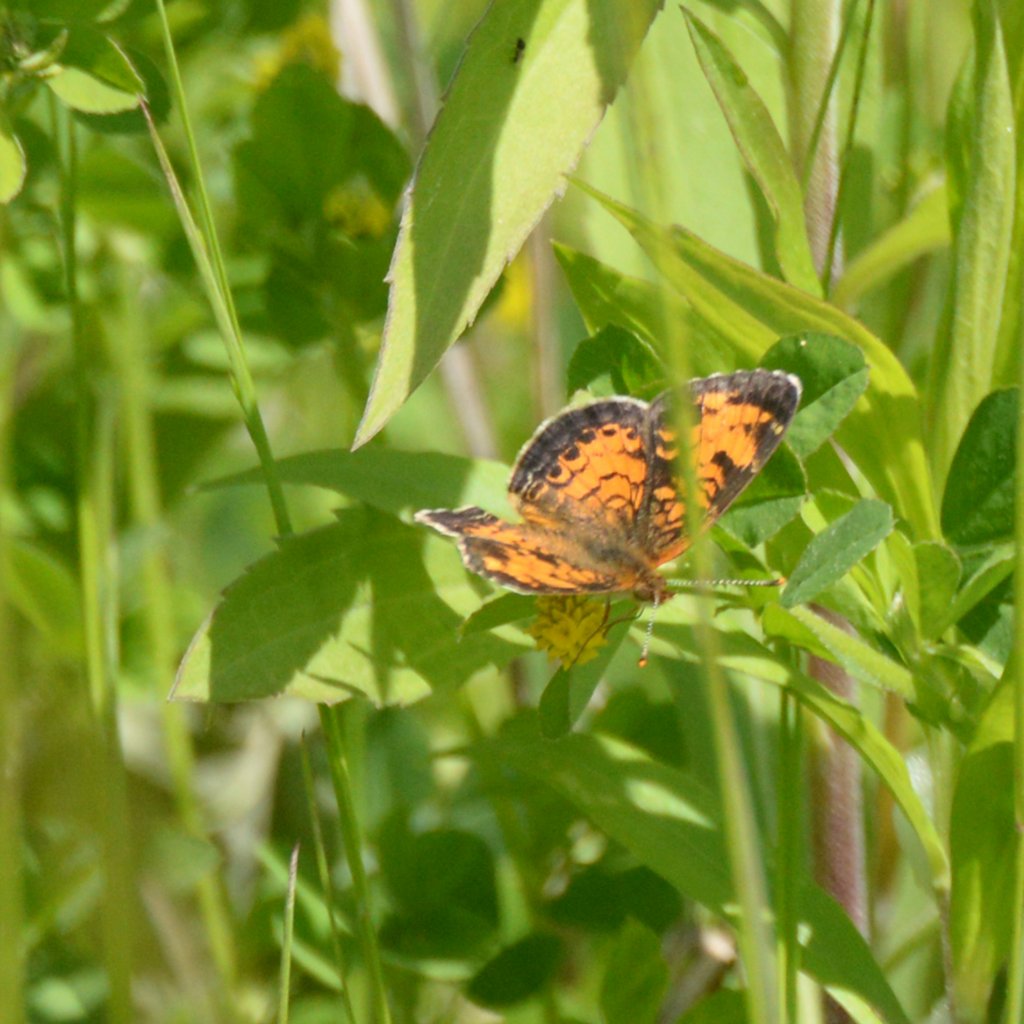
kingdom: Animalia
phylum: Arthropoda
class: Insecta
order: Lepidoptera
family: Nymphalidae
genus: Phyciodes
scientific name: Phyciodes tharos
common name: Northern Crescent
